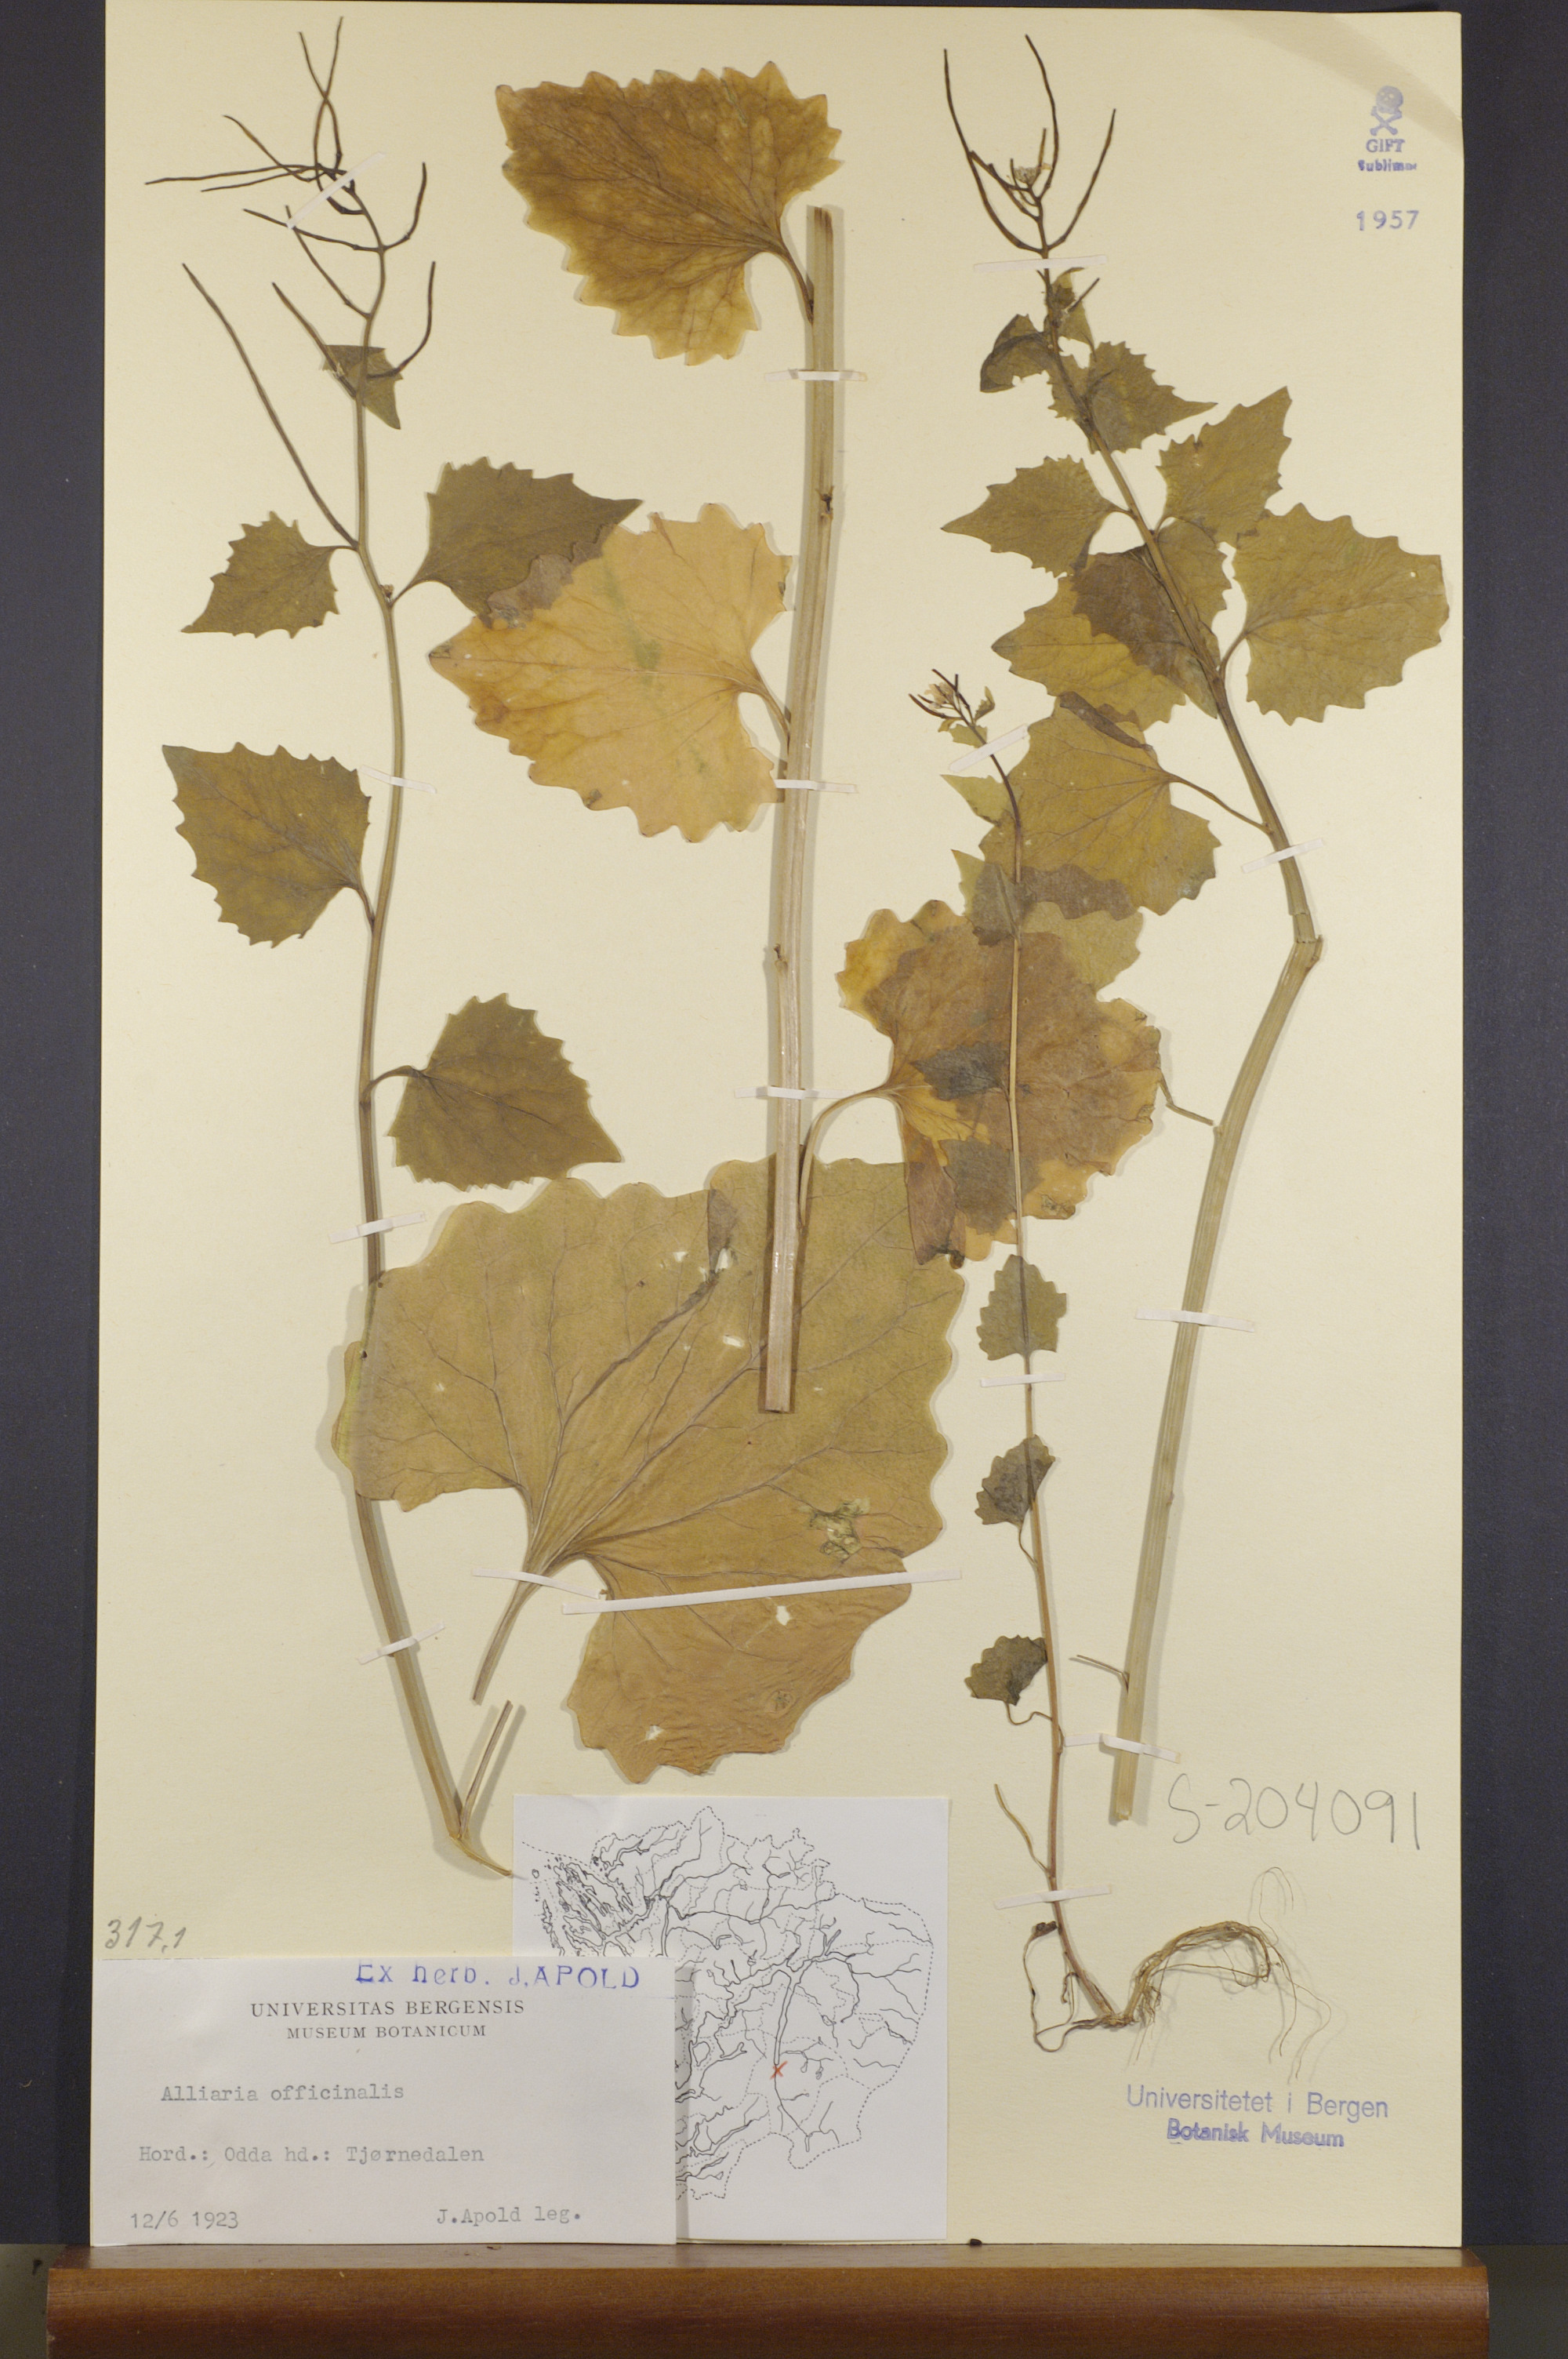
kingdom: Plantae
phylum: Tracheophyta
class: Magnoliopsida
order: Brassicales
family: Brassicaceae
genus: Alliaria
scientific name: Alliaria petiolata
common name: Garlic mustard
